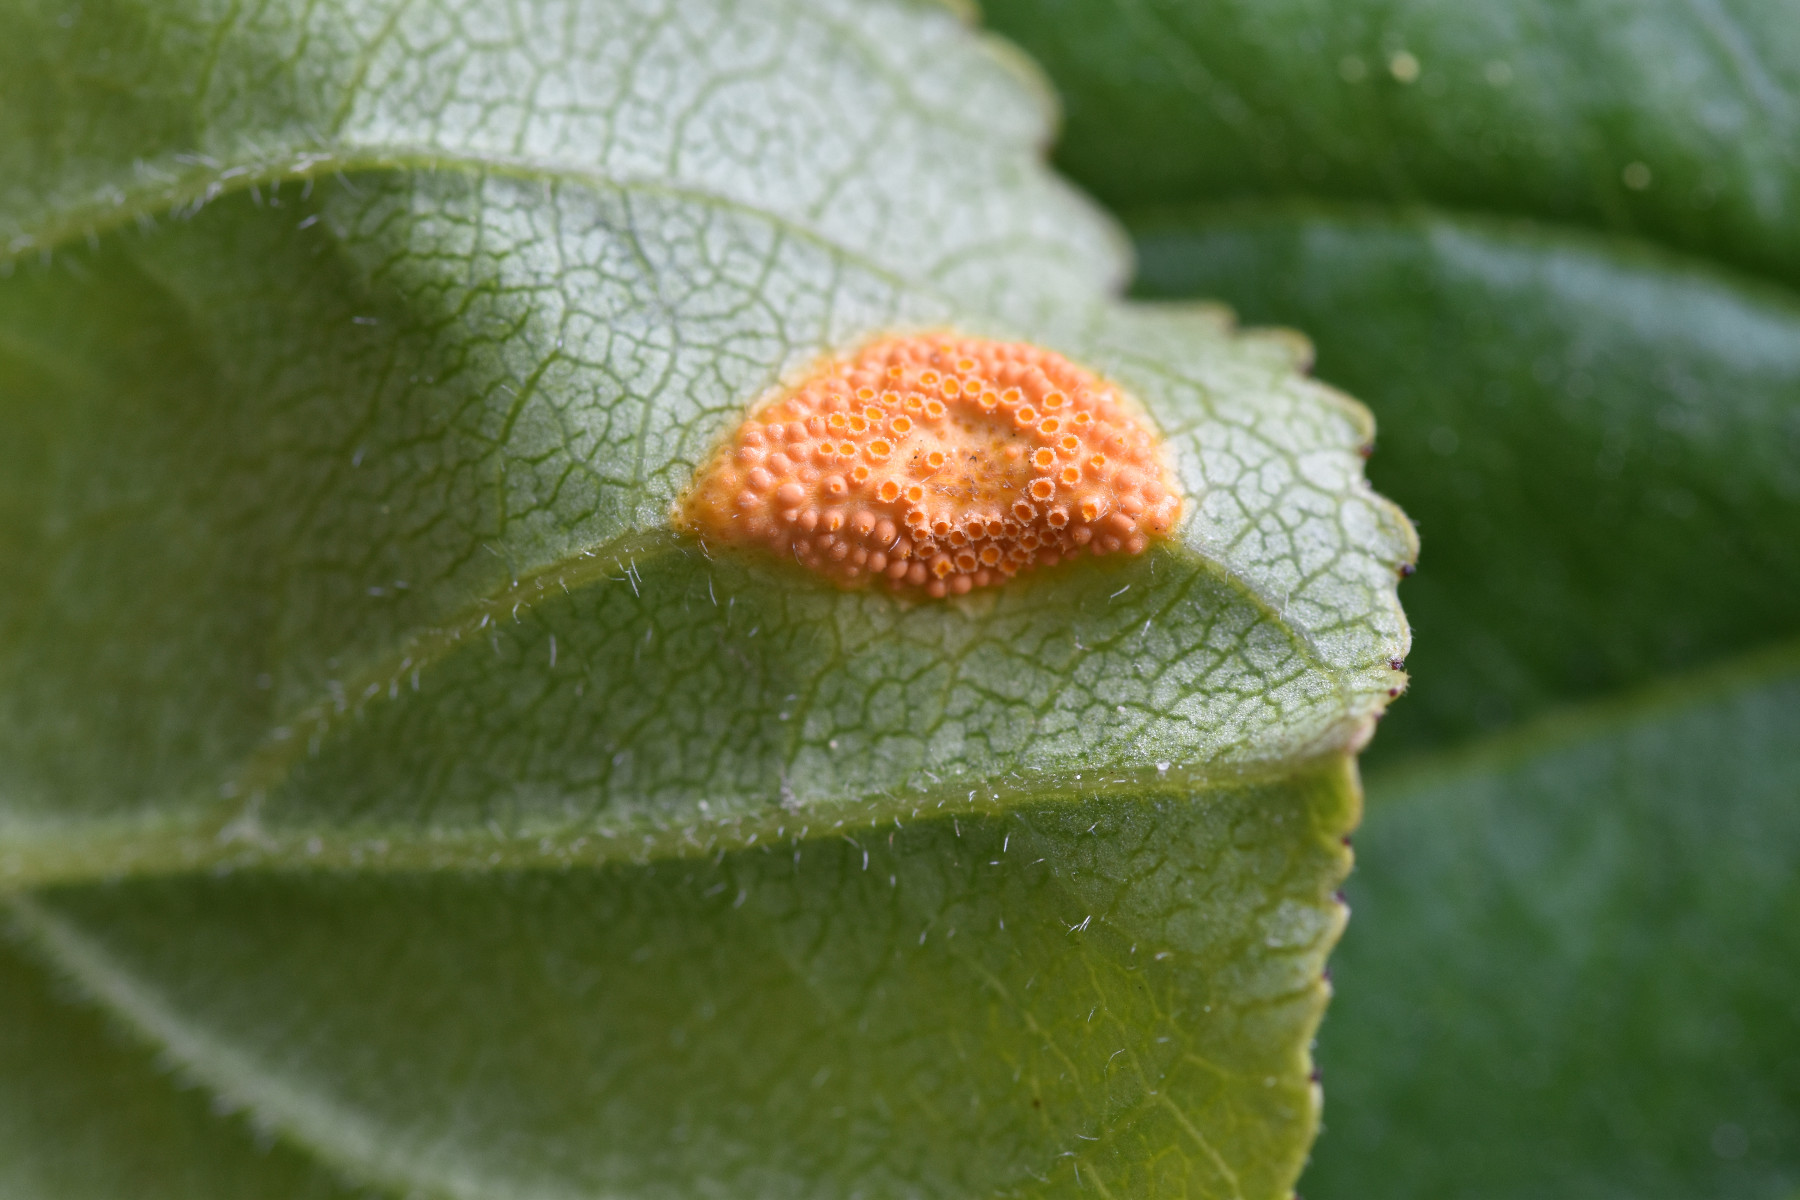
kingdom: Fungi
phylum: Basidiomycota
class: Pucciniomycetes
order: Pucciniales
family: Pucciniaceae
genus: Puccinia
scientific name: Puccinia coronata
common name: Crown rust
